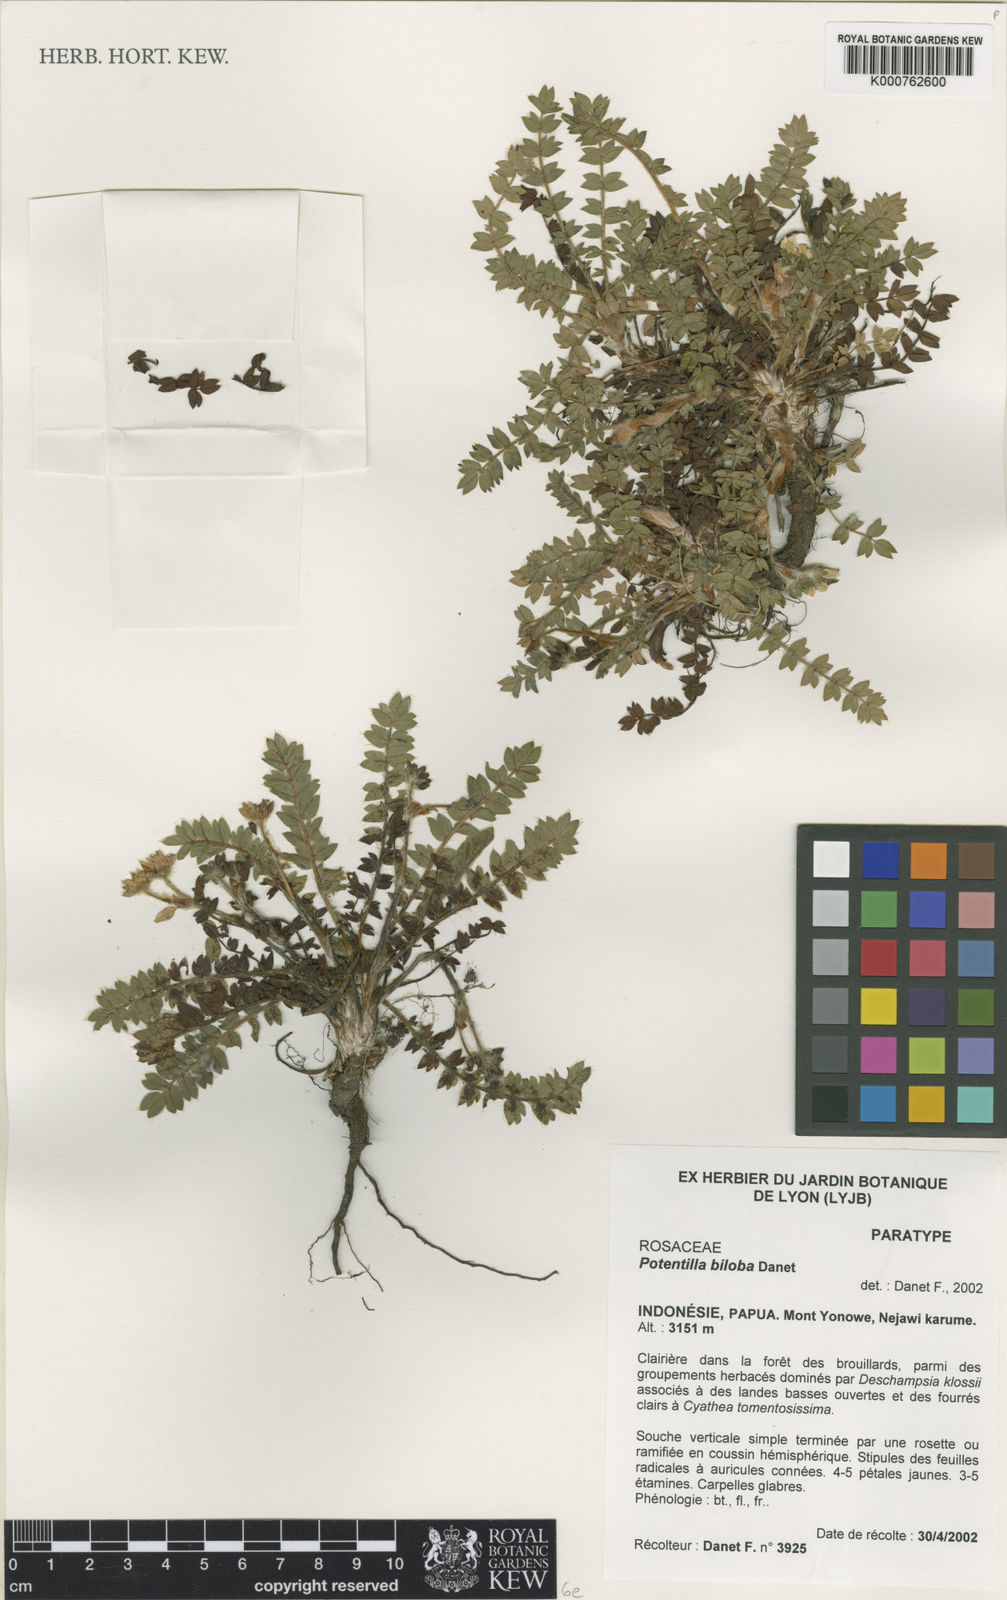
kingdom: Plantae
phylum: Tracheophyta
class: Magnoliopsida
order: Rosales
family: Rosaceae
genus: Argentina
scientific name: Argentina biloba
